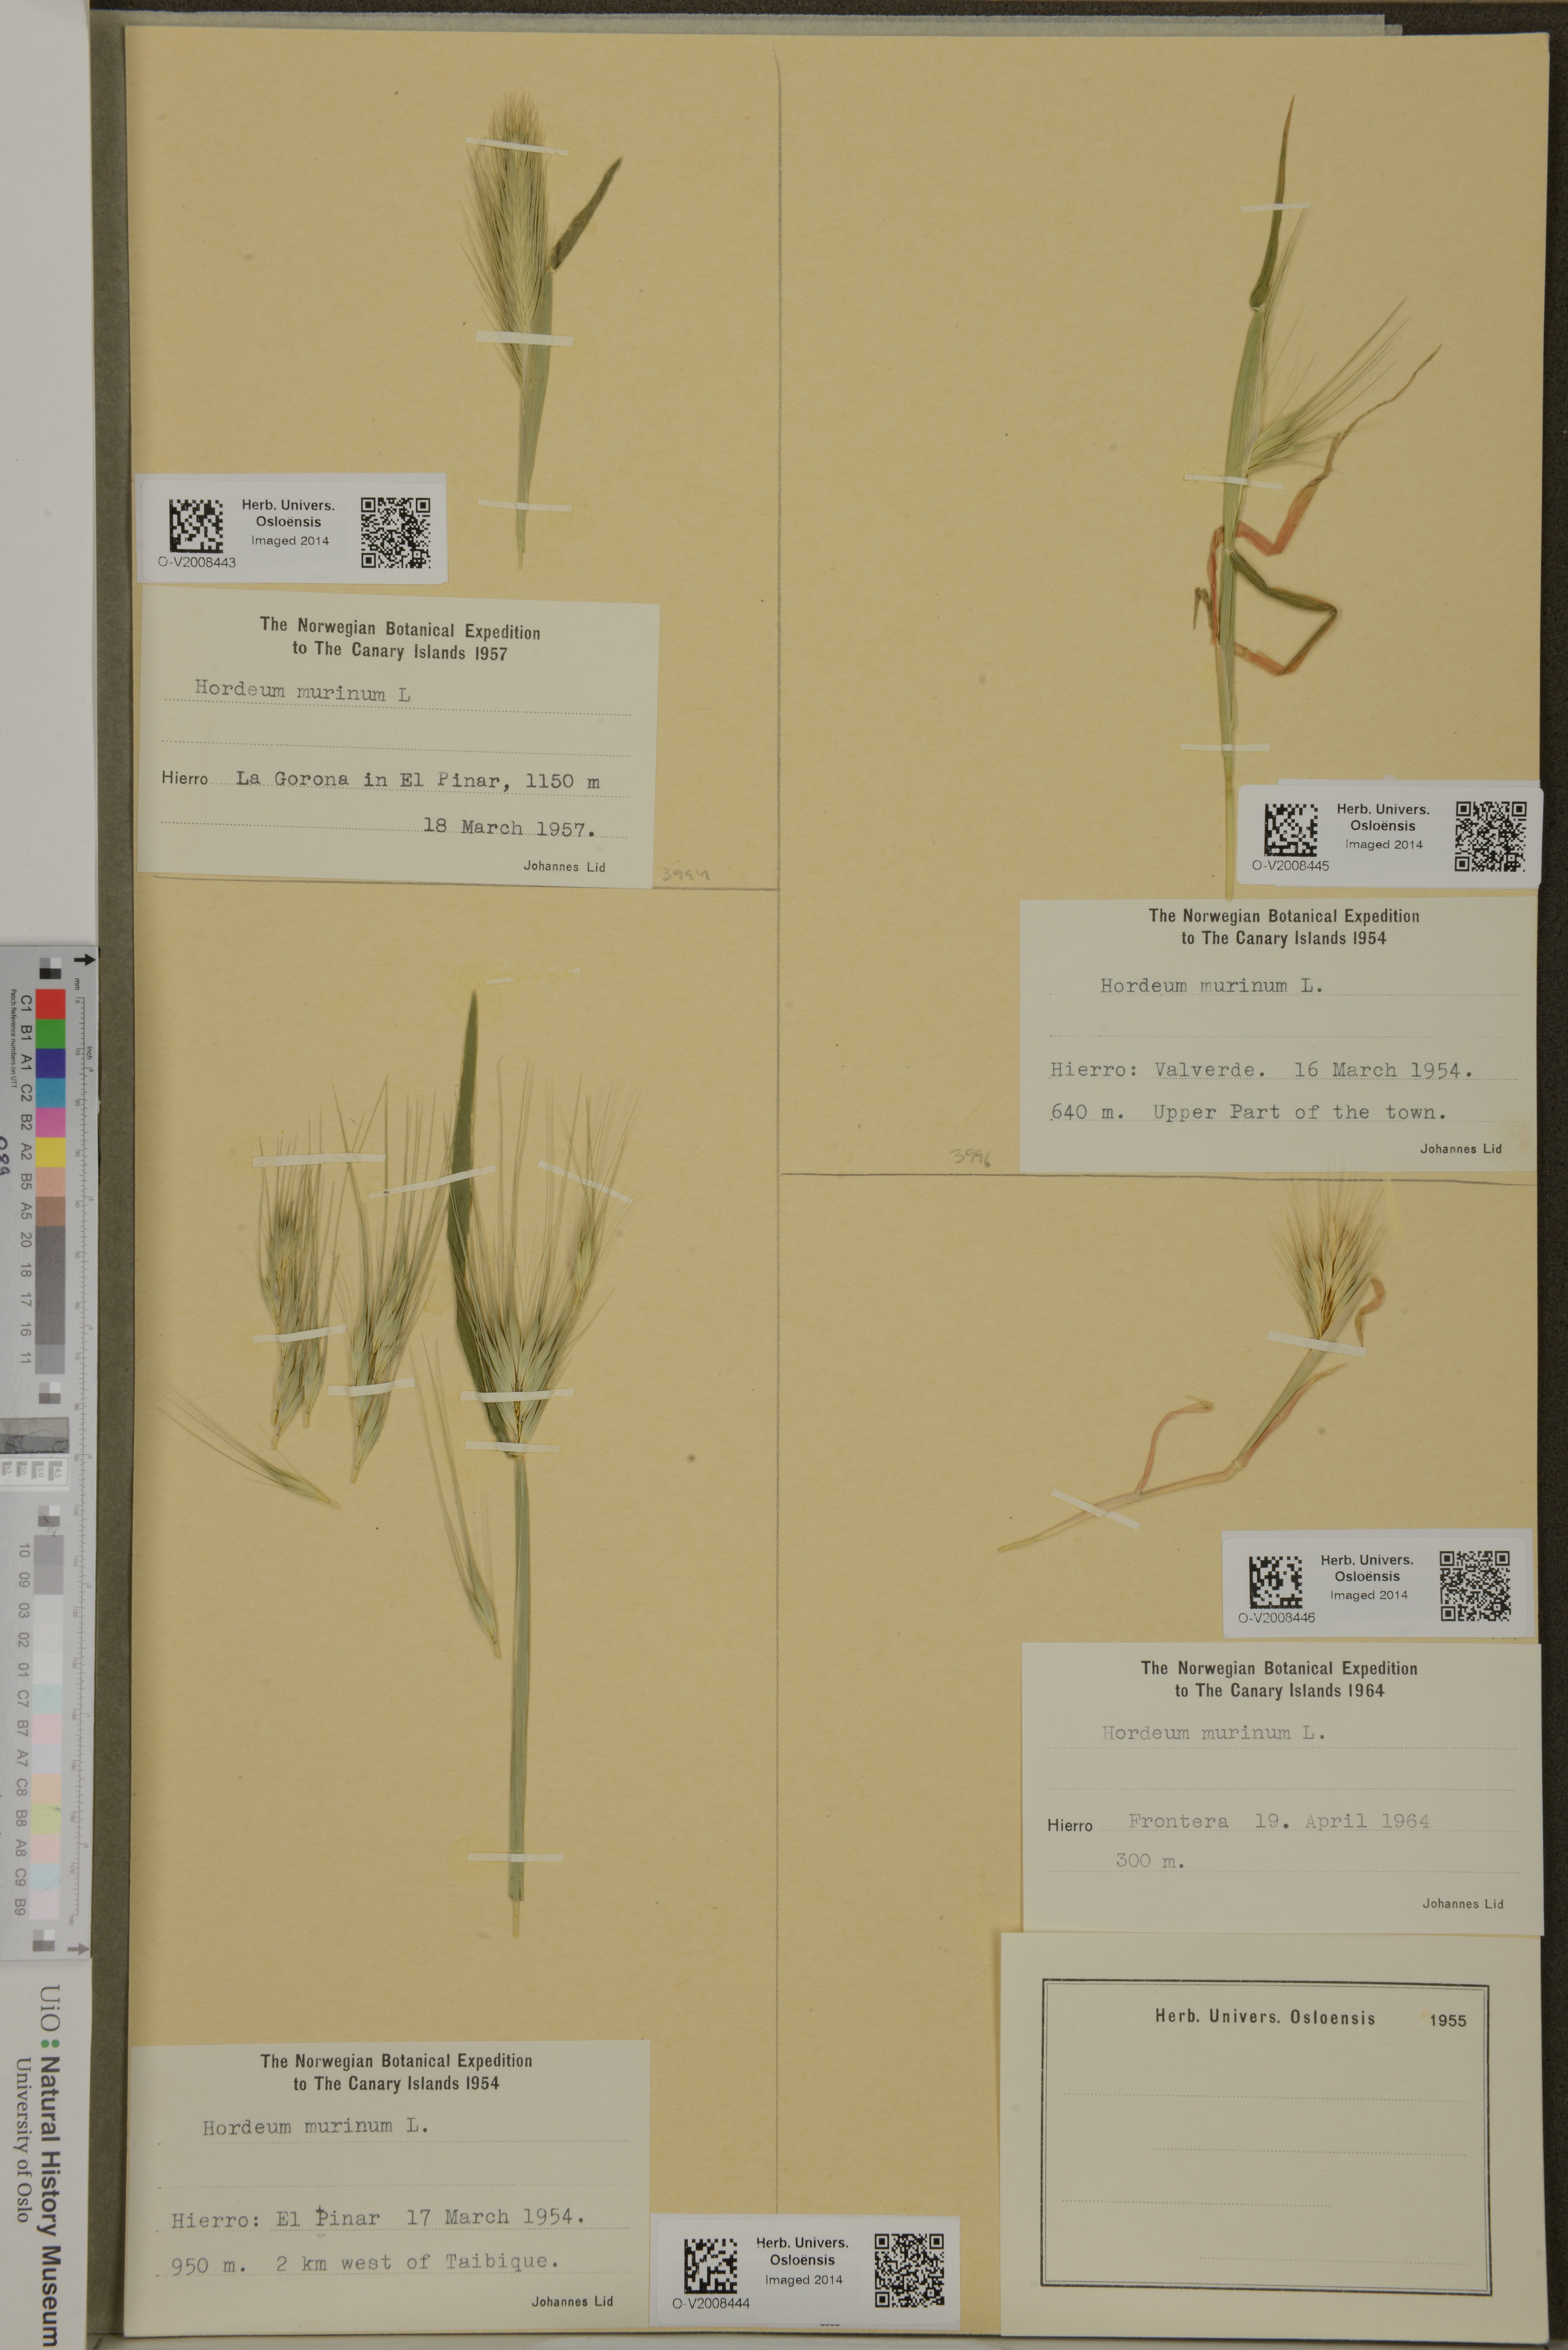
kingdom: Plantae
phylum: Tracheophyta
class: Liliopsida
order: Poales
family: Poaceae
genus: Hordeum
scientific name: Hordeum murinum
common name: Wall barley
